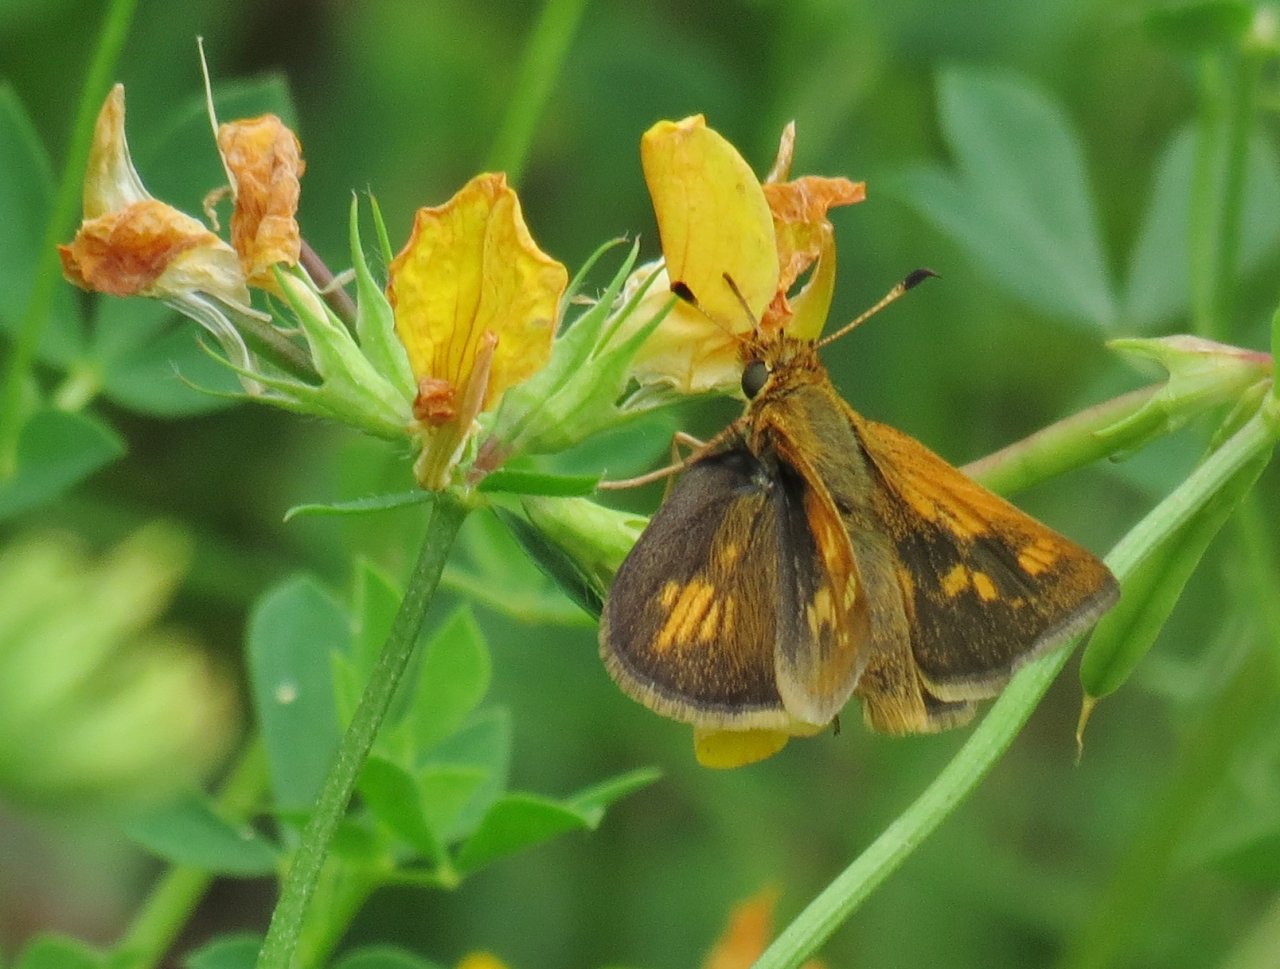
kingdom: Animalia
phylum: Arthropoda
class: Insecta
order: Lepidoptera
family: Hesperiidae
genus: Polites
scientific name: Polites coras
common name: Peck's Skipper
